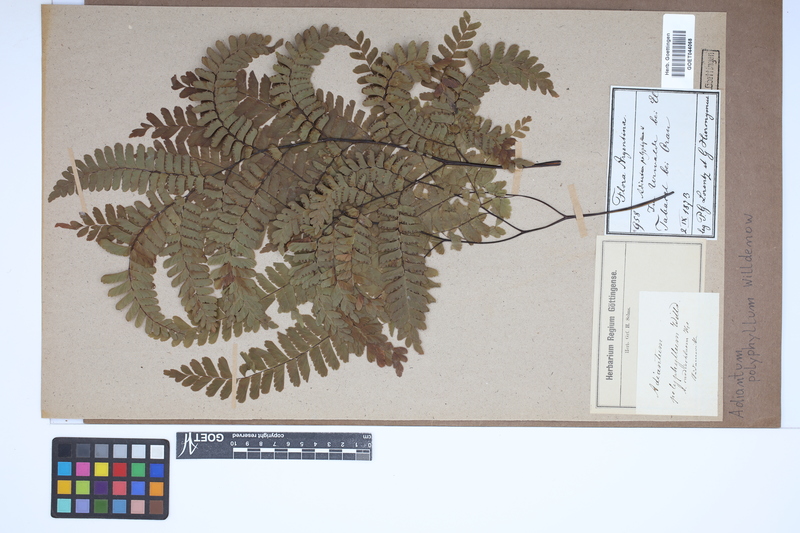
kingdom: Plantae
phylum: Tracheophyta
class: Polypodiopsida
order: Polypodiales
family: Pteridaceae
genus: Adiantum
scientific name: Adiantum polyphyllum
